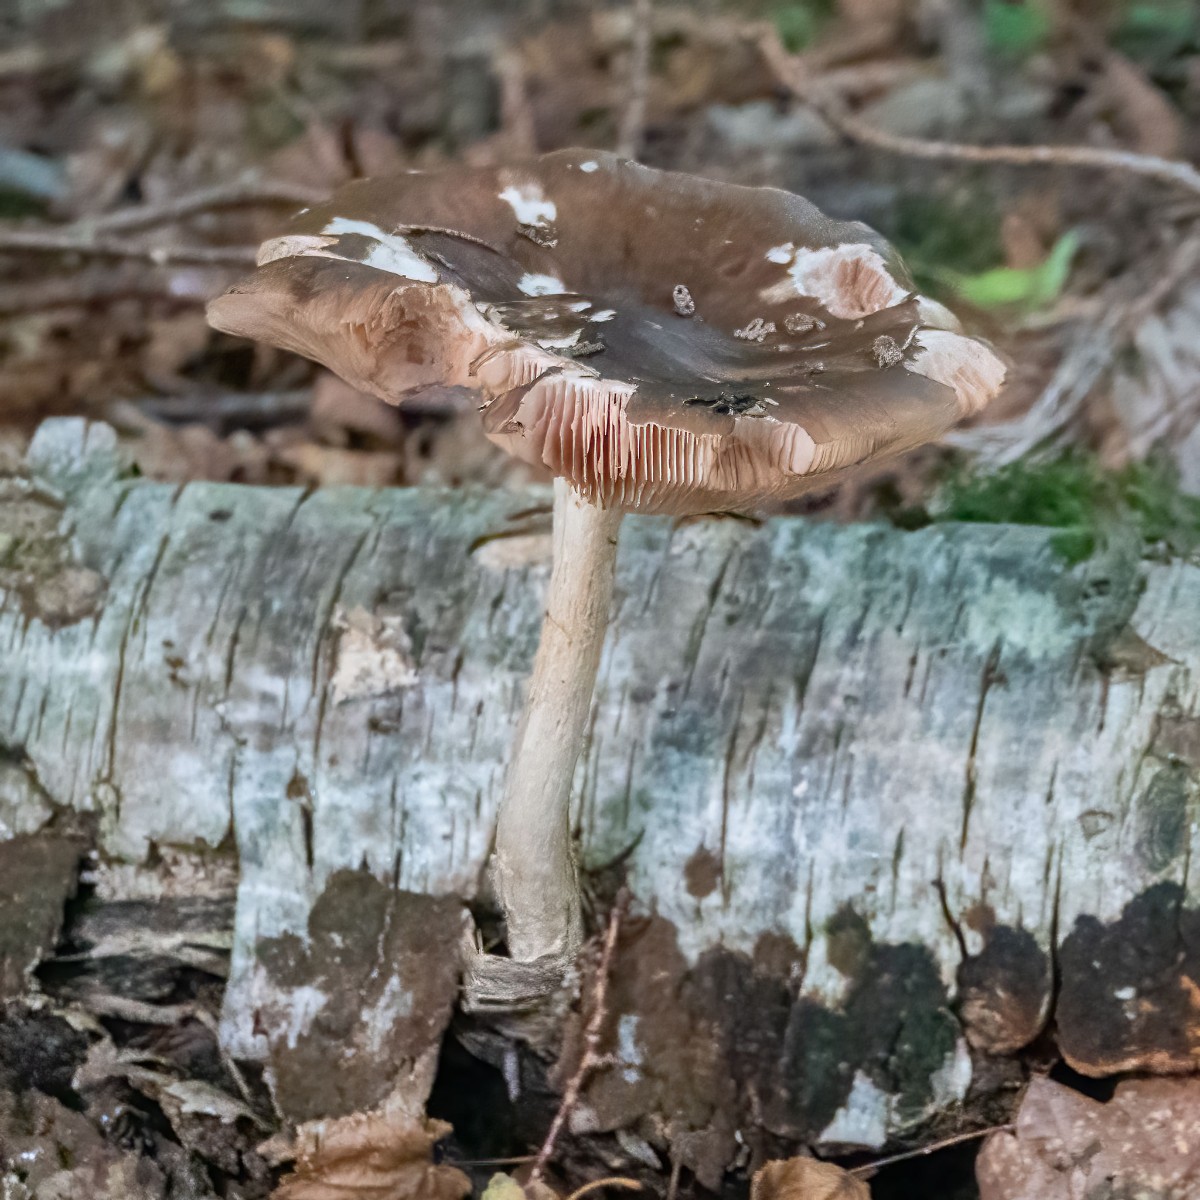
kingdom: Fungi
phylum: Basidiomycota
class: Agaricomycetes
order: Agaricales
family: Pluteaceae
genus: Pluteus
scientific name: Pluteus cervinus
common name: sodfarvet skærmhat
